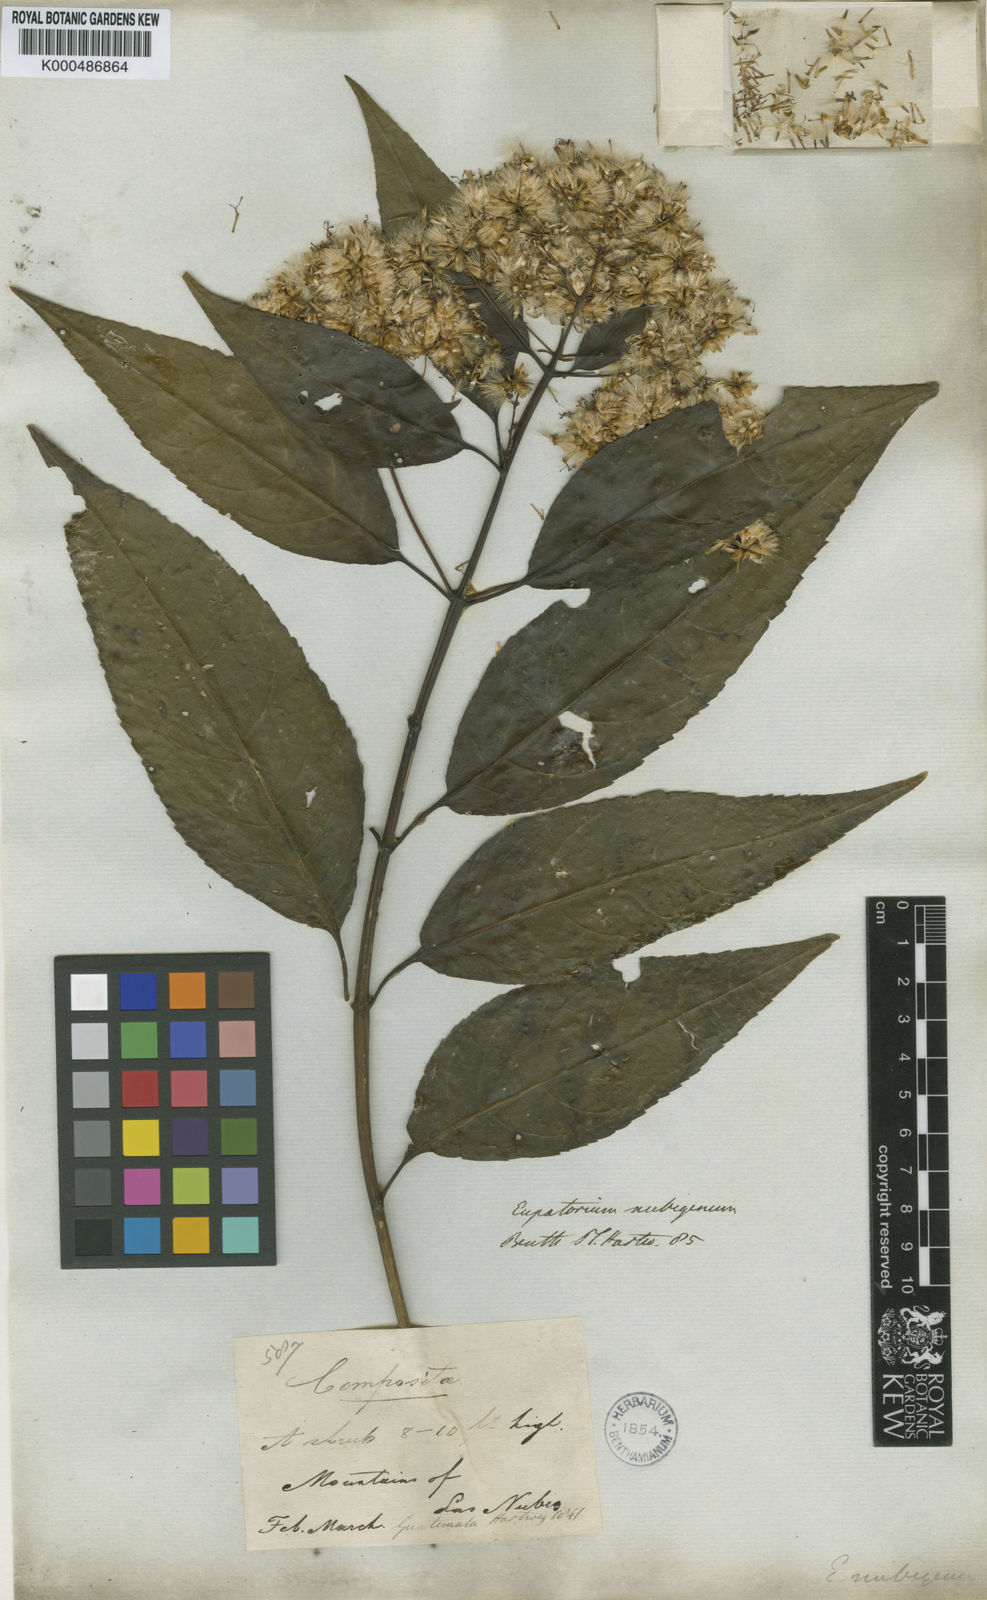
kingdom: Plantae
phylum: Tracheophyta
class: Magnoliopsida
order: Asterales
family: Asteraceae
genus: Critonia
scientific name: Critonia nubigena
